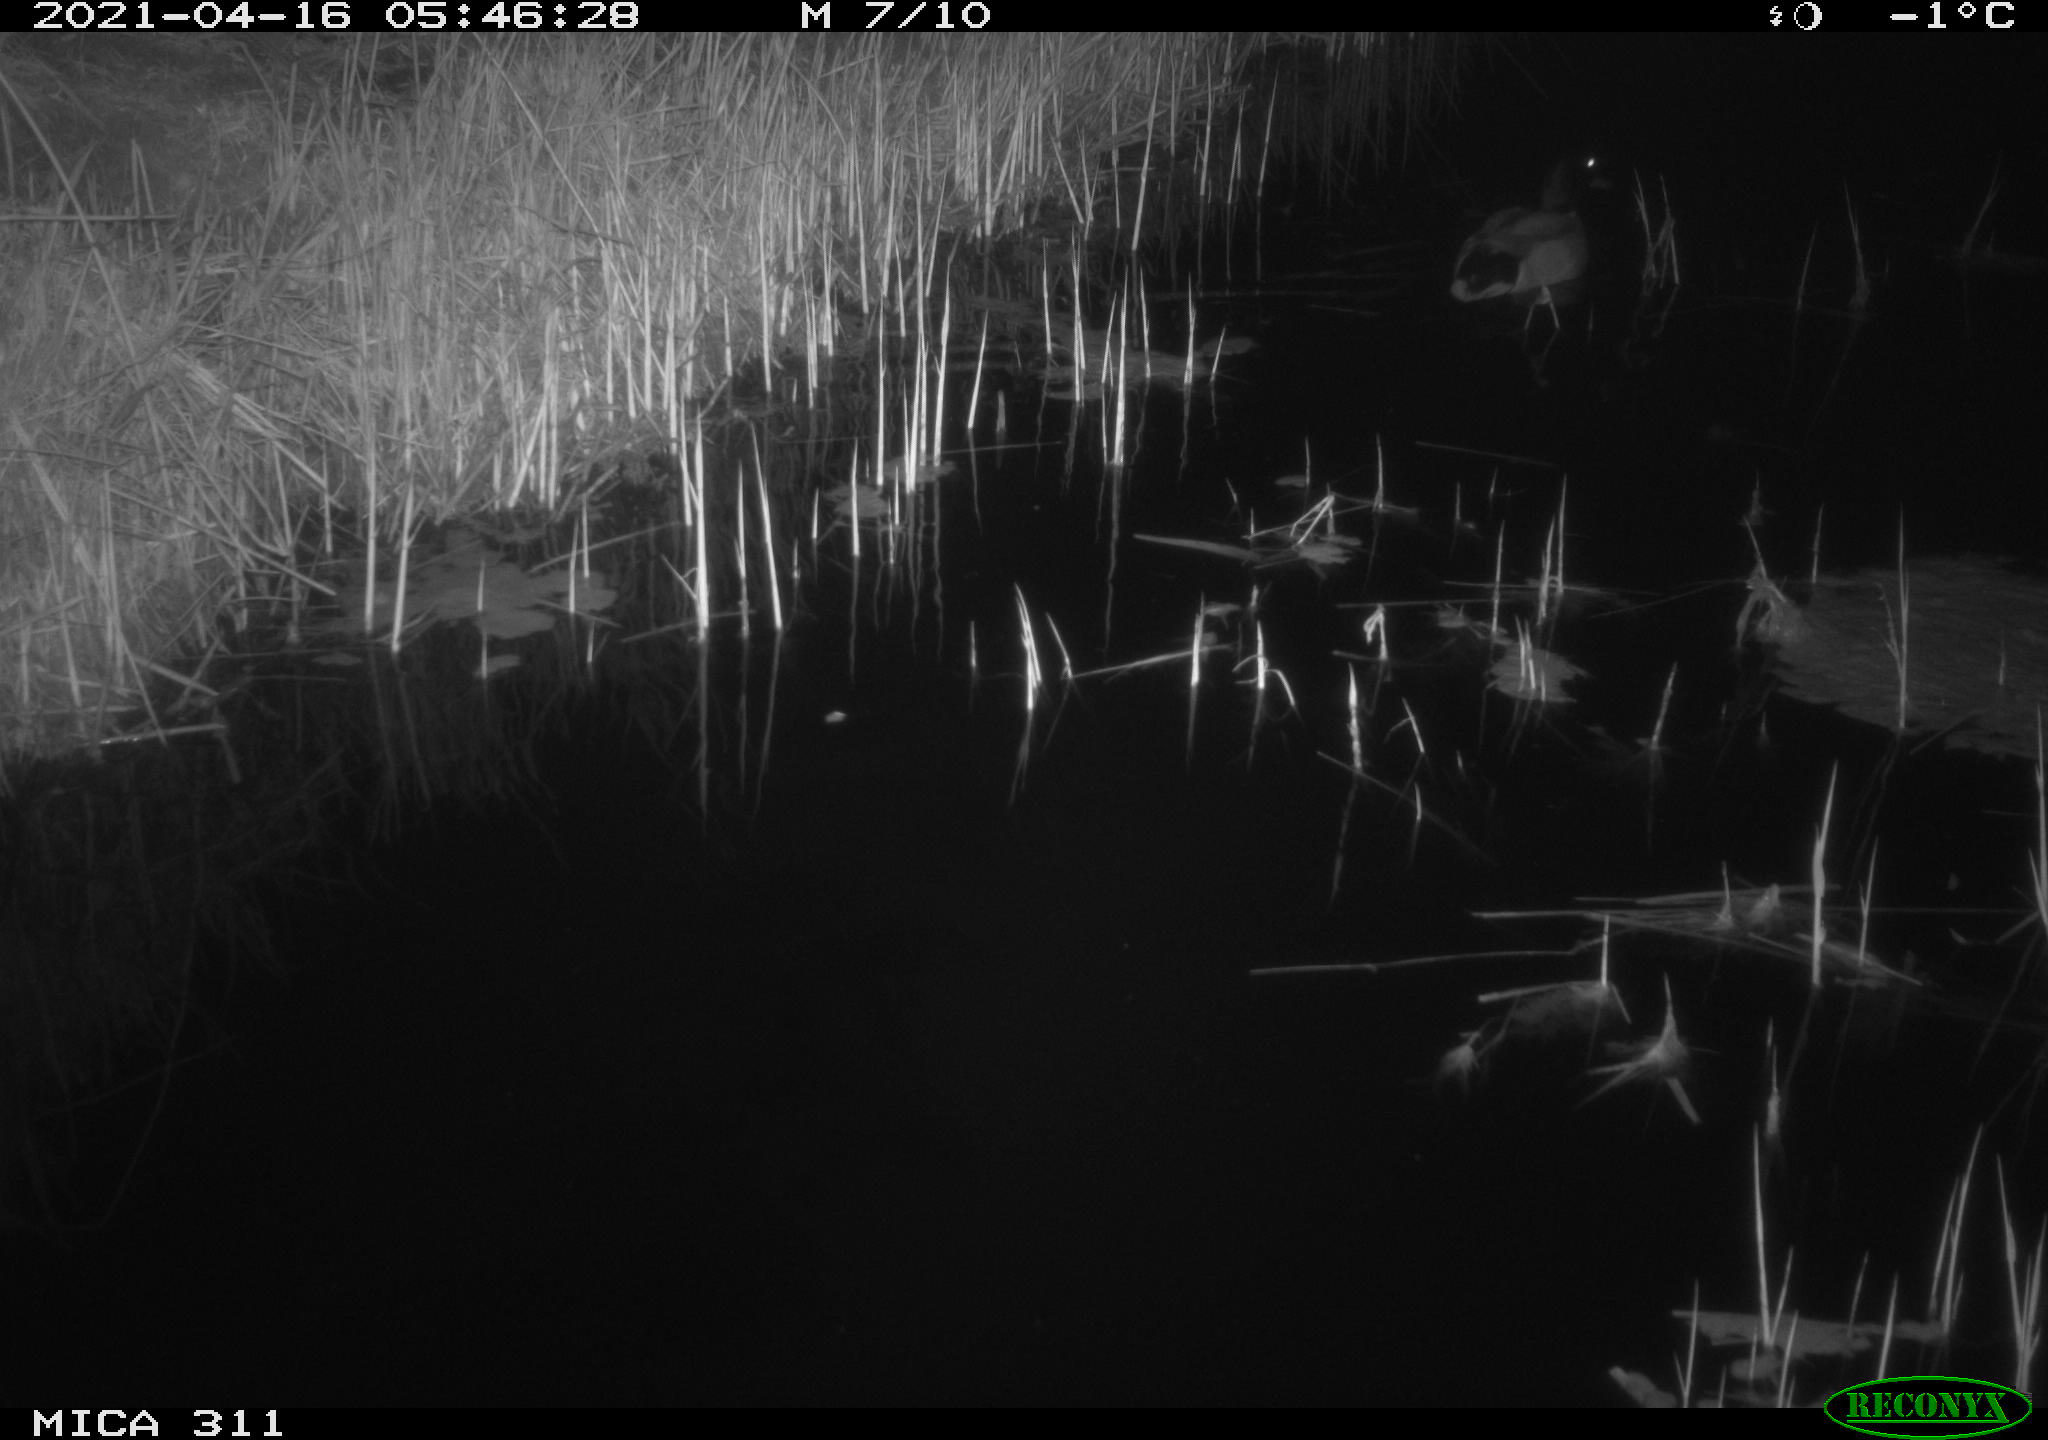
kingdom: Animalia
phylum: Chordata
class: Aves
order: Anseriformes
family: Anatidae
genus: Anas
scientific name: Anas platyrhynchos
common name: Mallard
